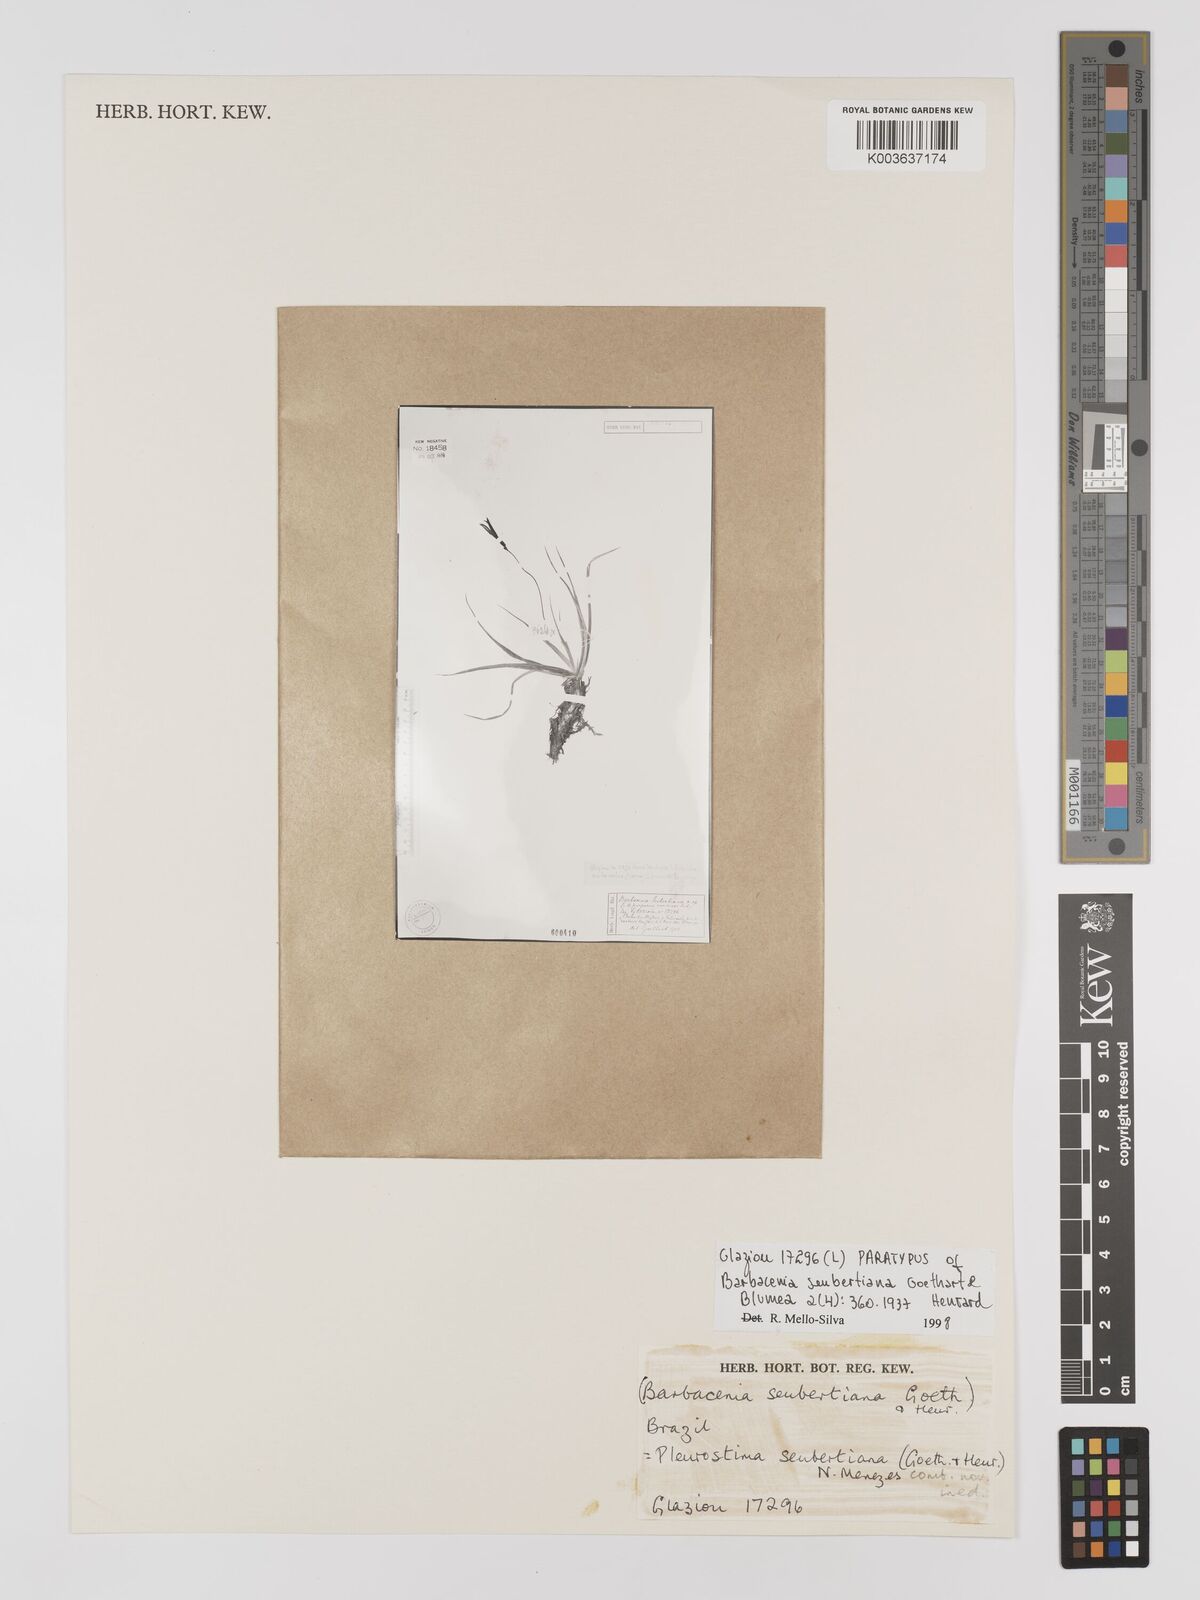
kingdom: Plantae
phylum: Tracheophyta
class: Liliopsida
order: Pandanales
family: Velloziaceae
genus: Barbacenia
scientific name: Barbacenia seubertiana
